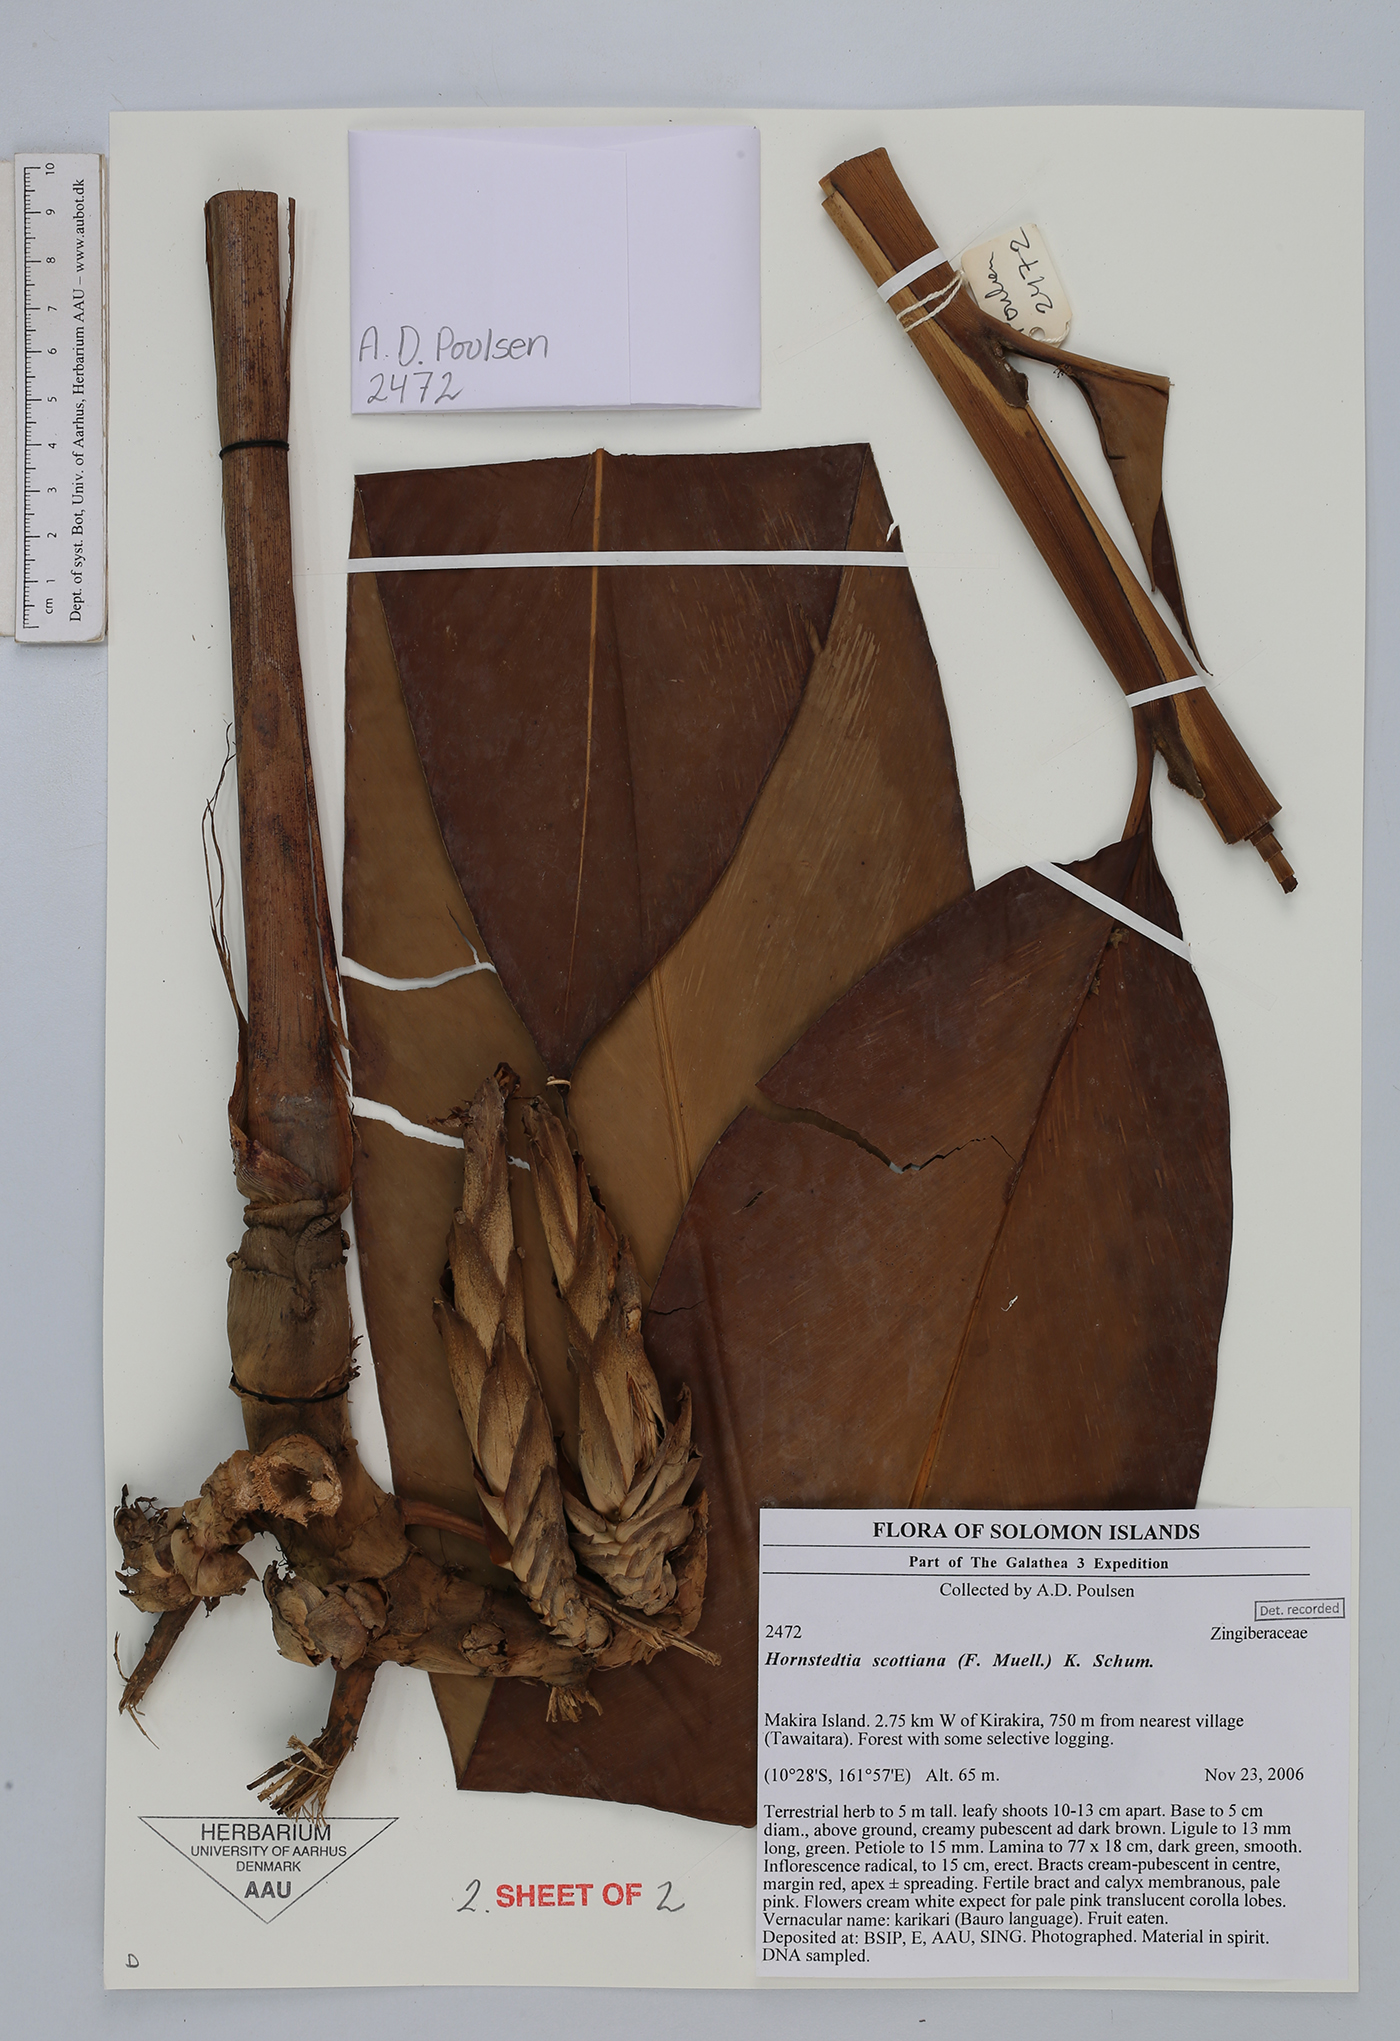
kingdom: Plantae
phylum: Tracheophyta
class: Liliopsida
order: Zingiberales
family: Zingiberaceae
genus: Hornstedtia
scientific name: Hornstedtia scottiana
